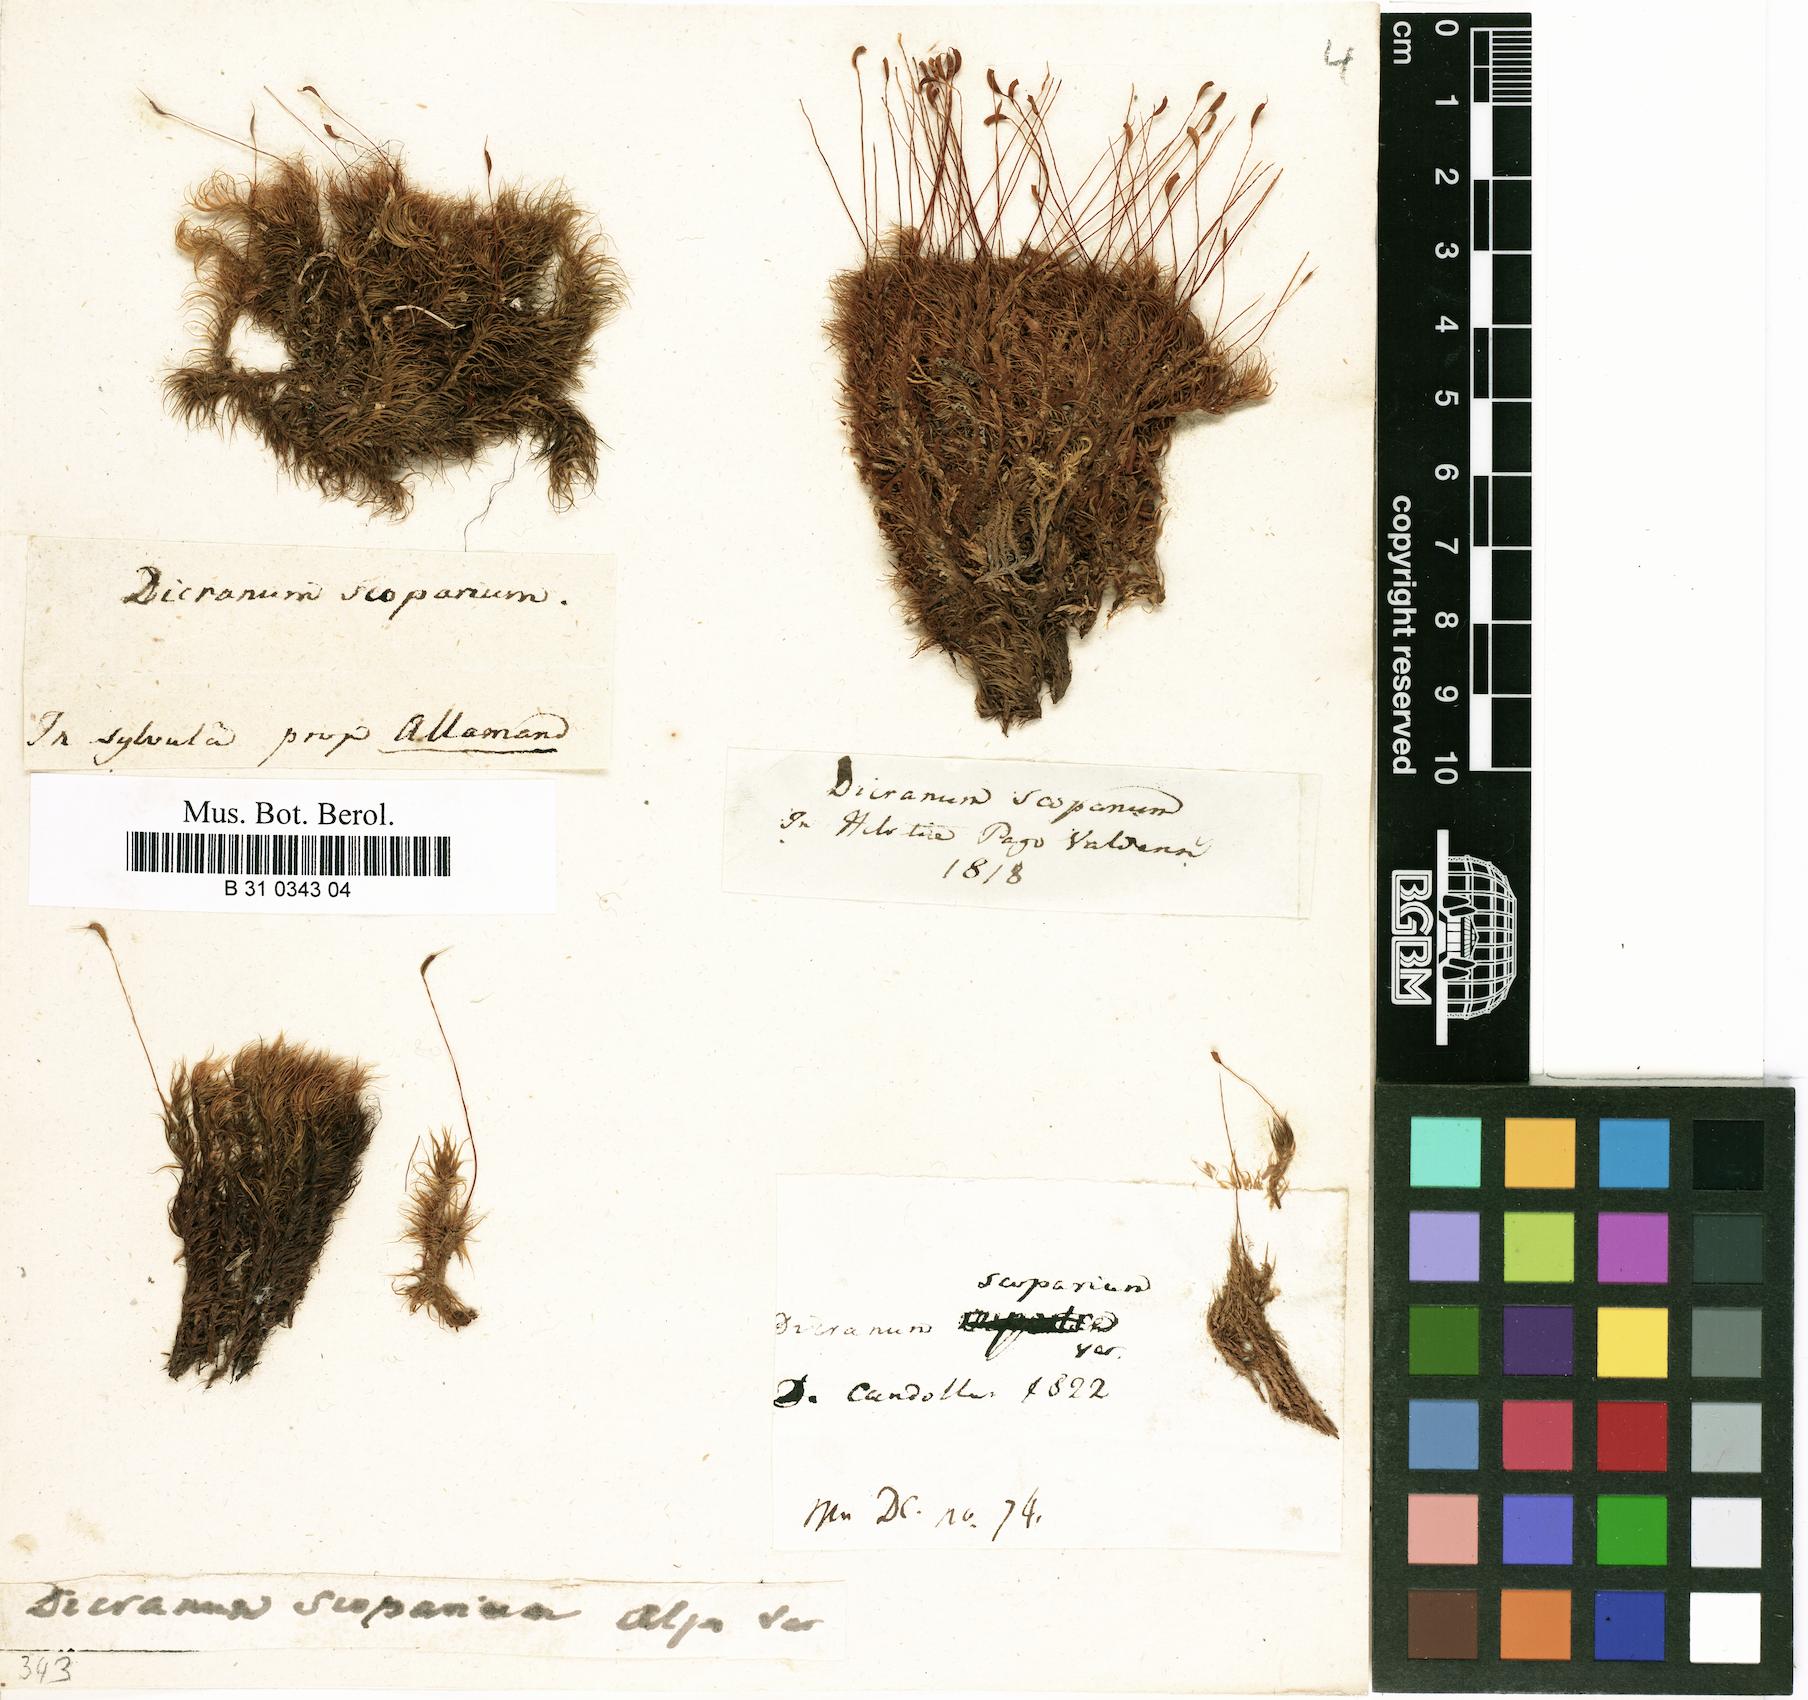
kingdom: Plantae
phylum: Bryophyta
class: Bryopsida
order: Dicranales
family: Dicranaceae
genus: Dicranum
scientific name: Dicranum scoparium
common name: Broom fork-moss
